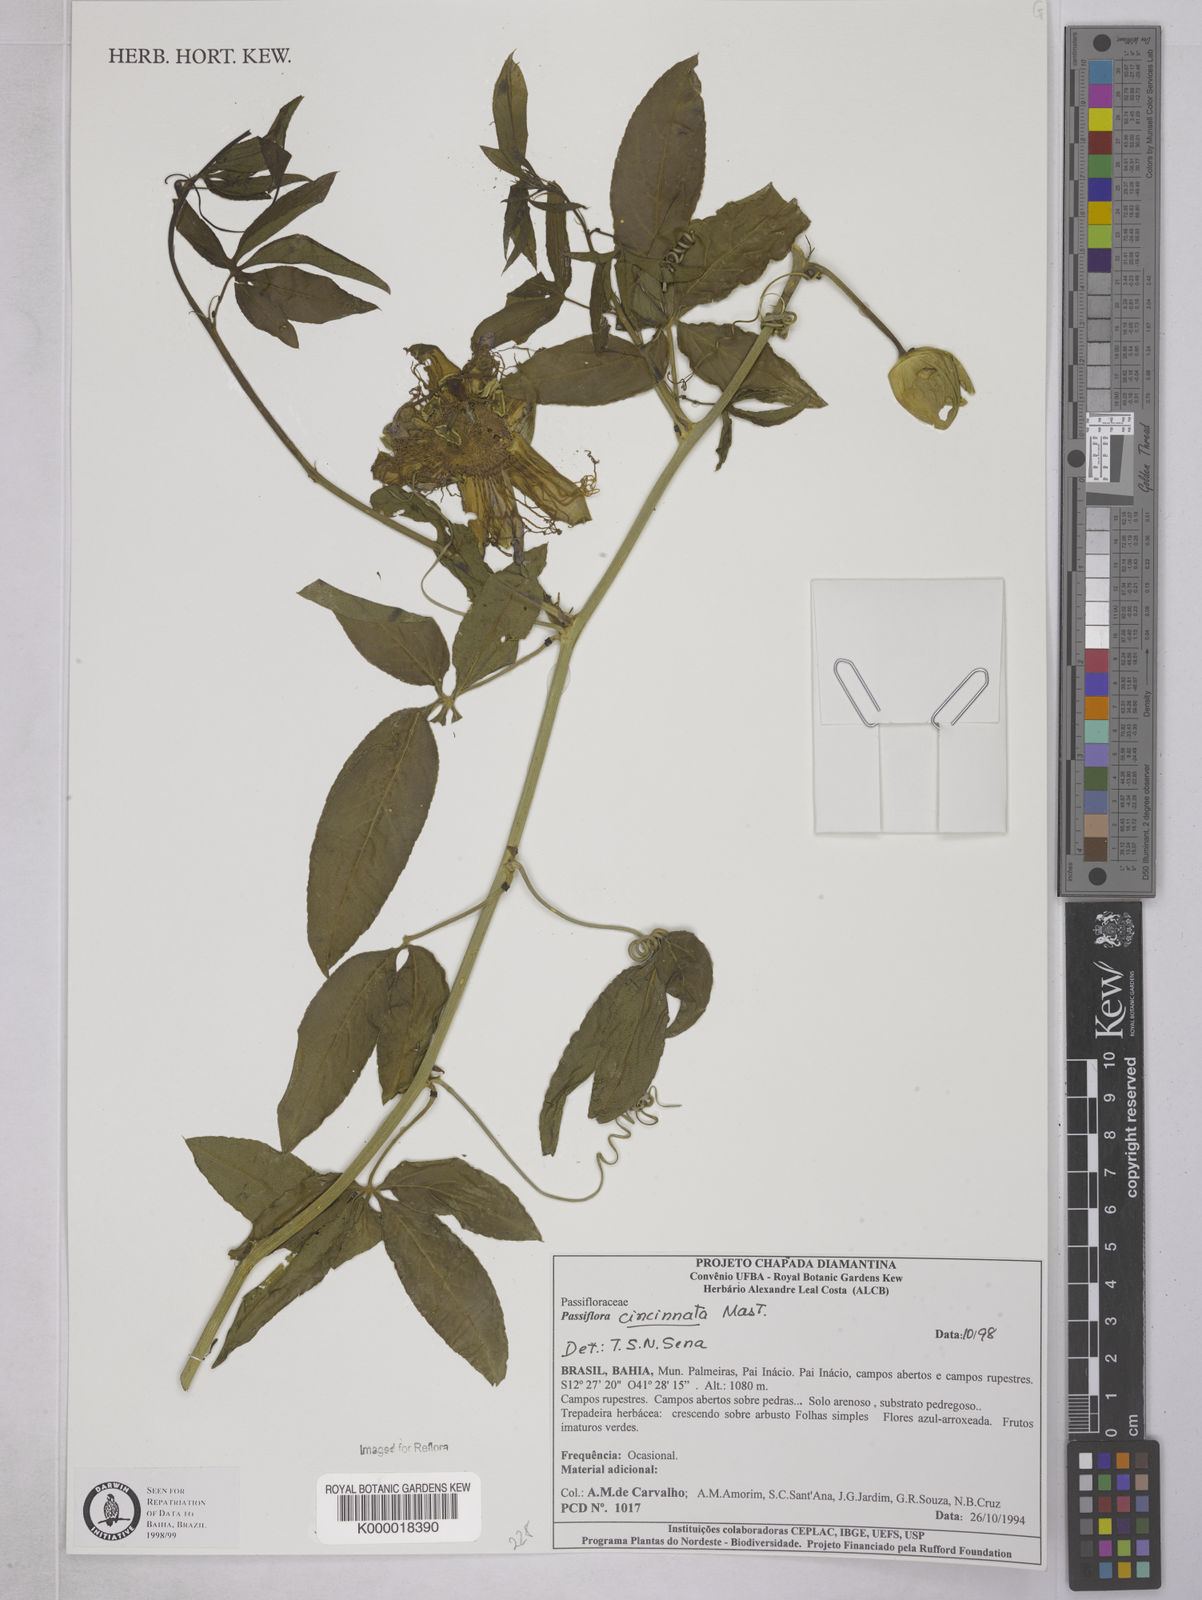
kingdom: Plantae
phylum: Tracheophyta
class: Magnoliopsida
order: Malpighiales
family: Passifloraceae
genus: Passiflora
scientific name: Passiflora cincinnata
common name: Crato passionvine
